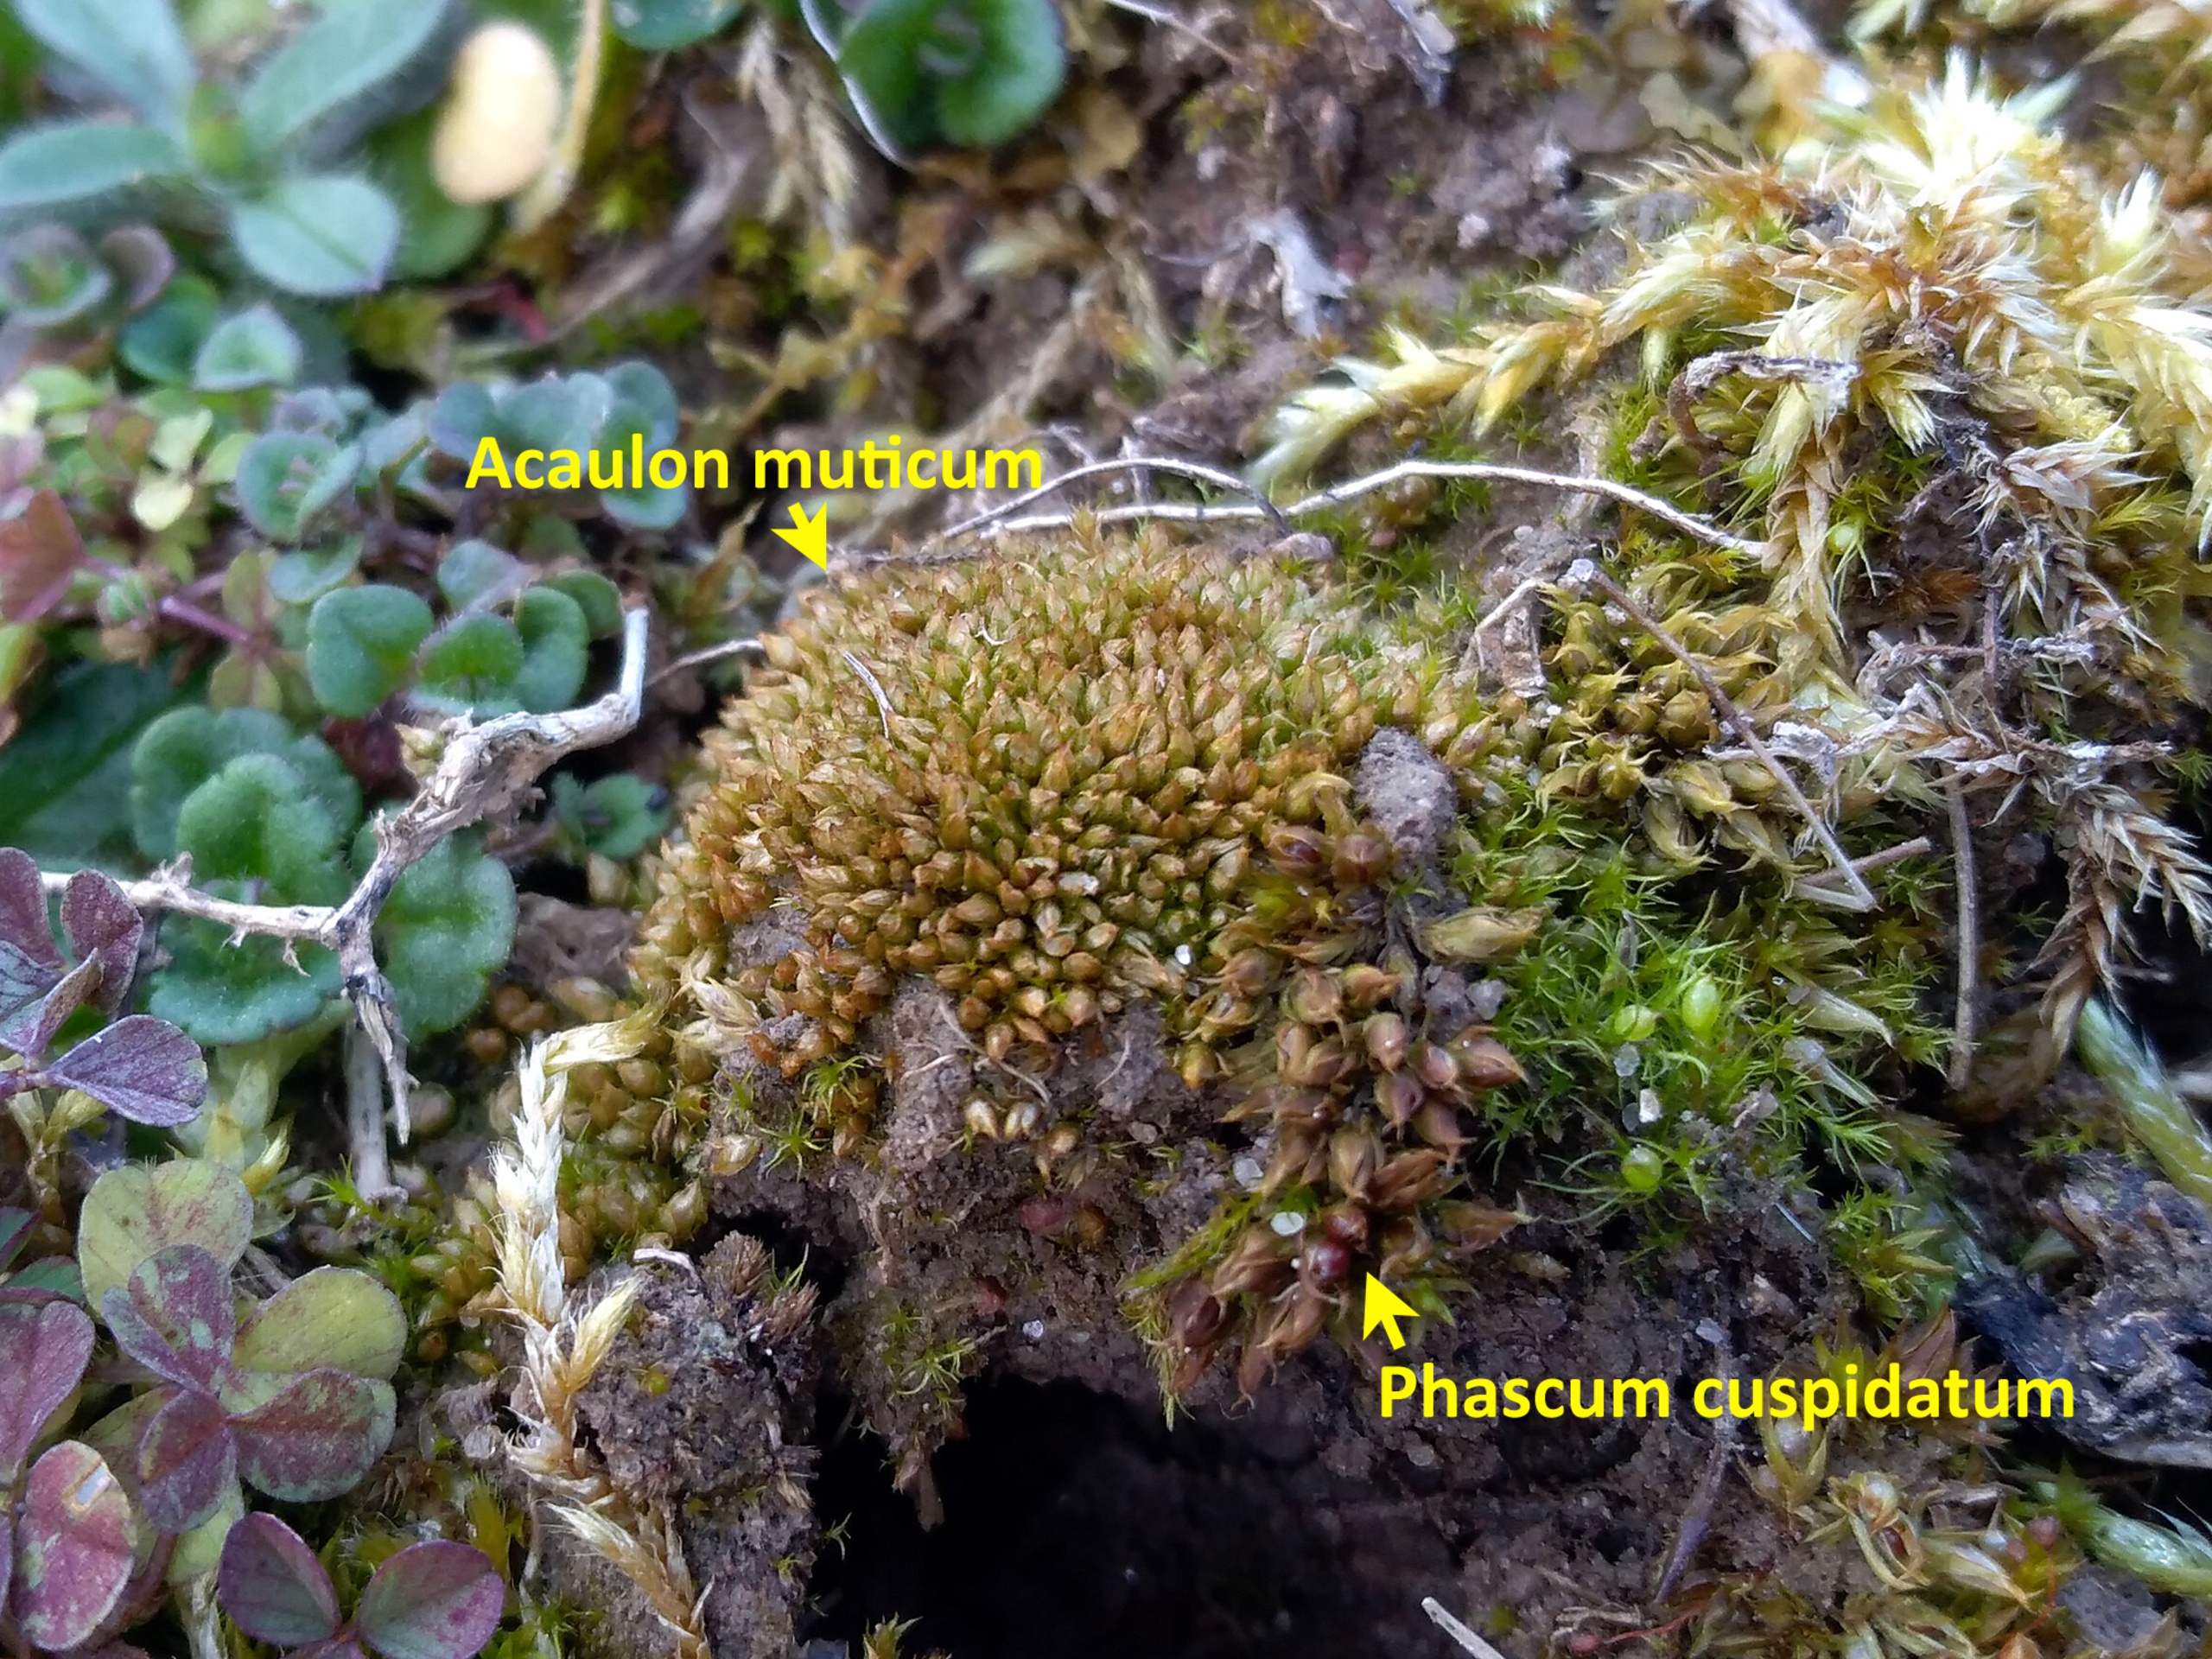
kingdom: Plantae
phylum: Bryophyta
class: Bryopsida
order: Pottiales
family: Pottiaceae
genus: Acaulon
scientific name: Acaulon muticum
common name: Siddende ægmos
